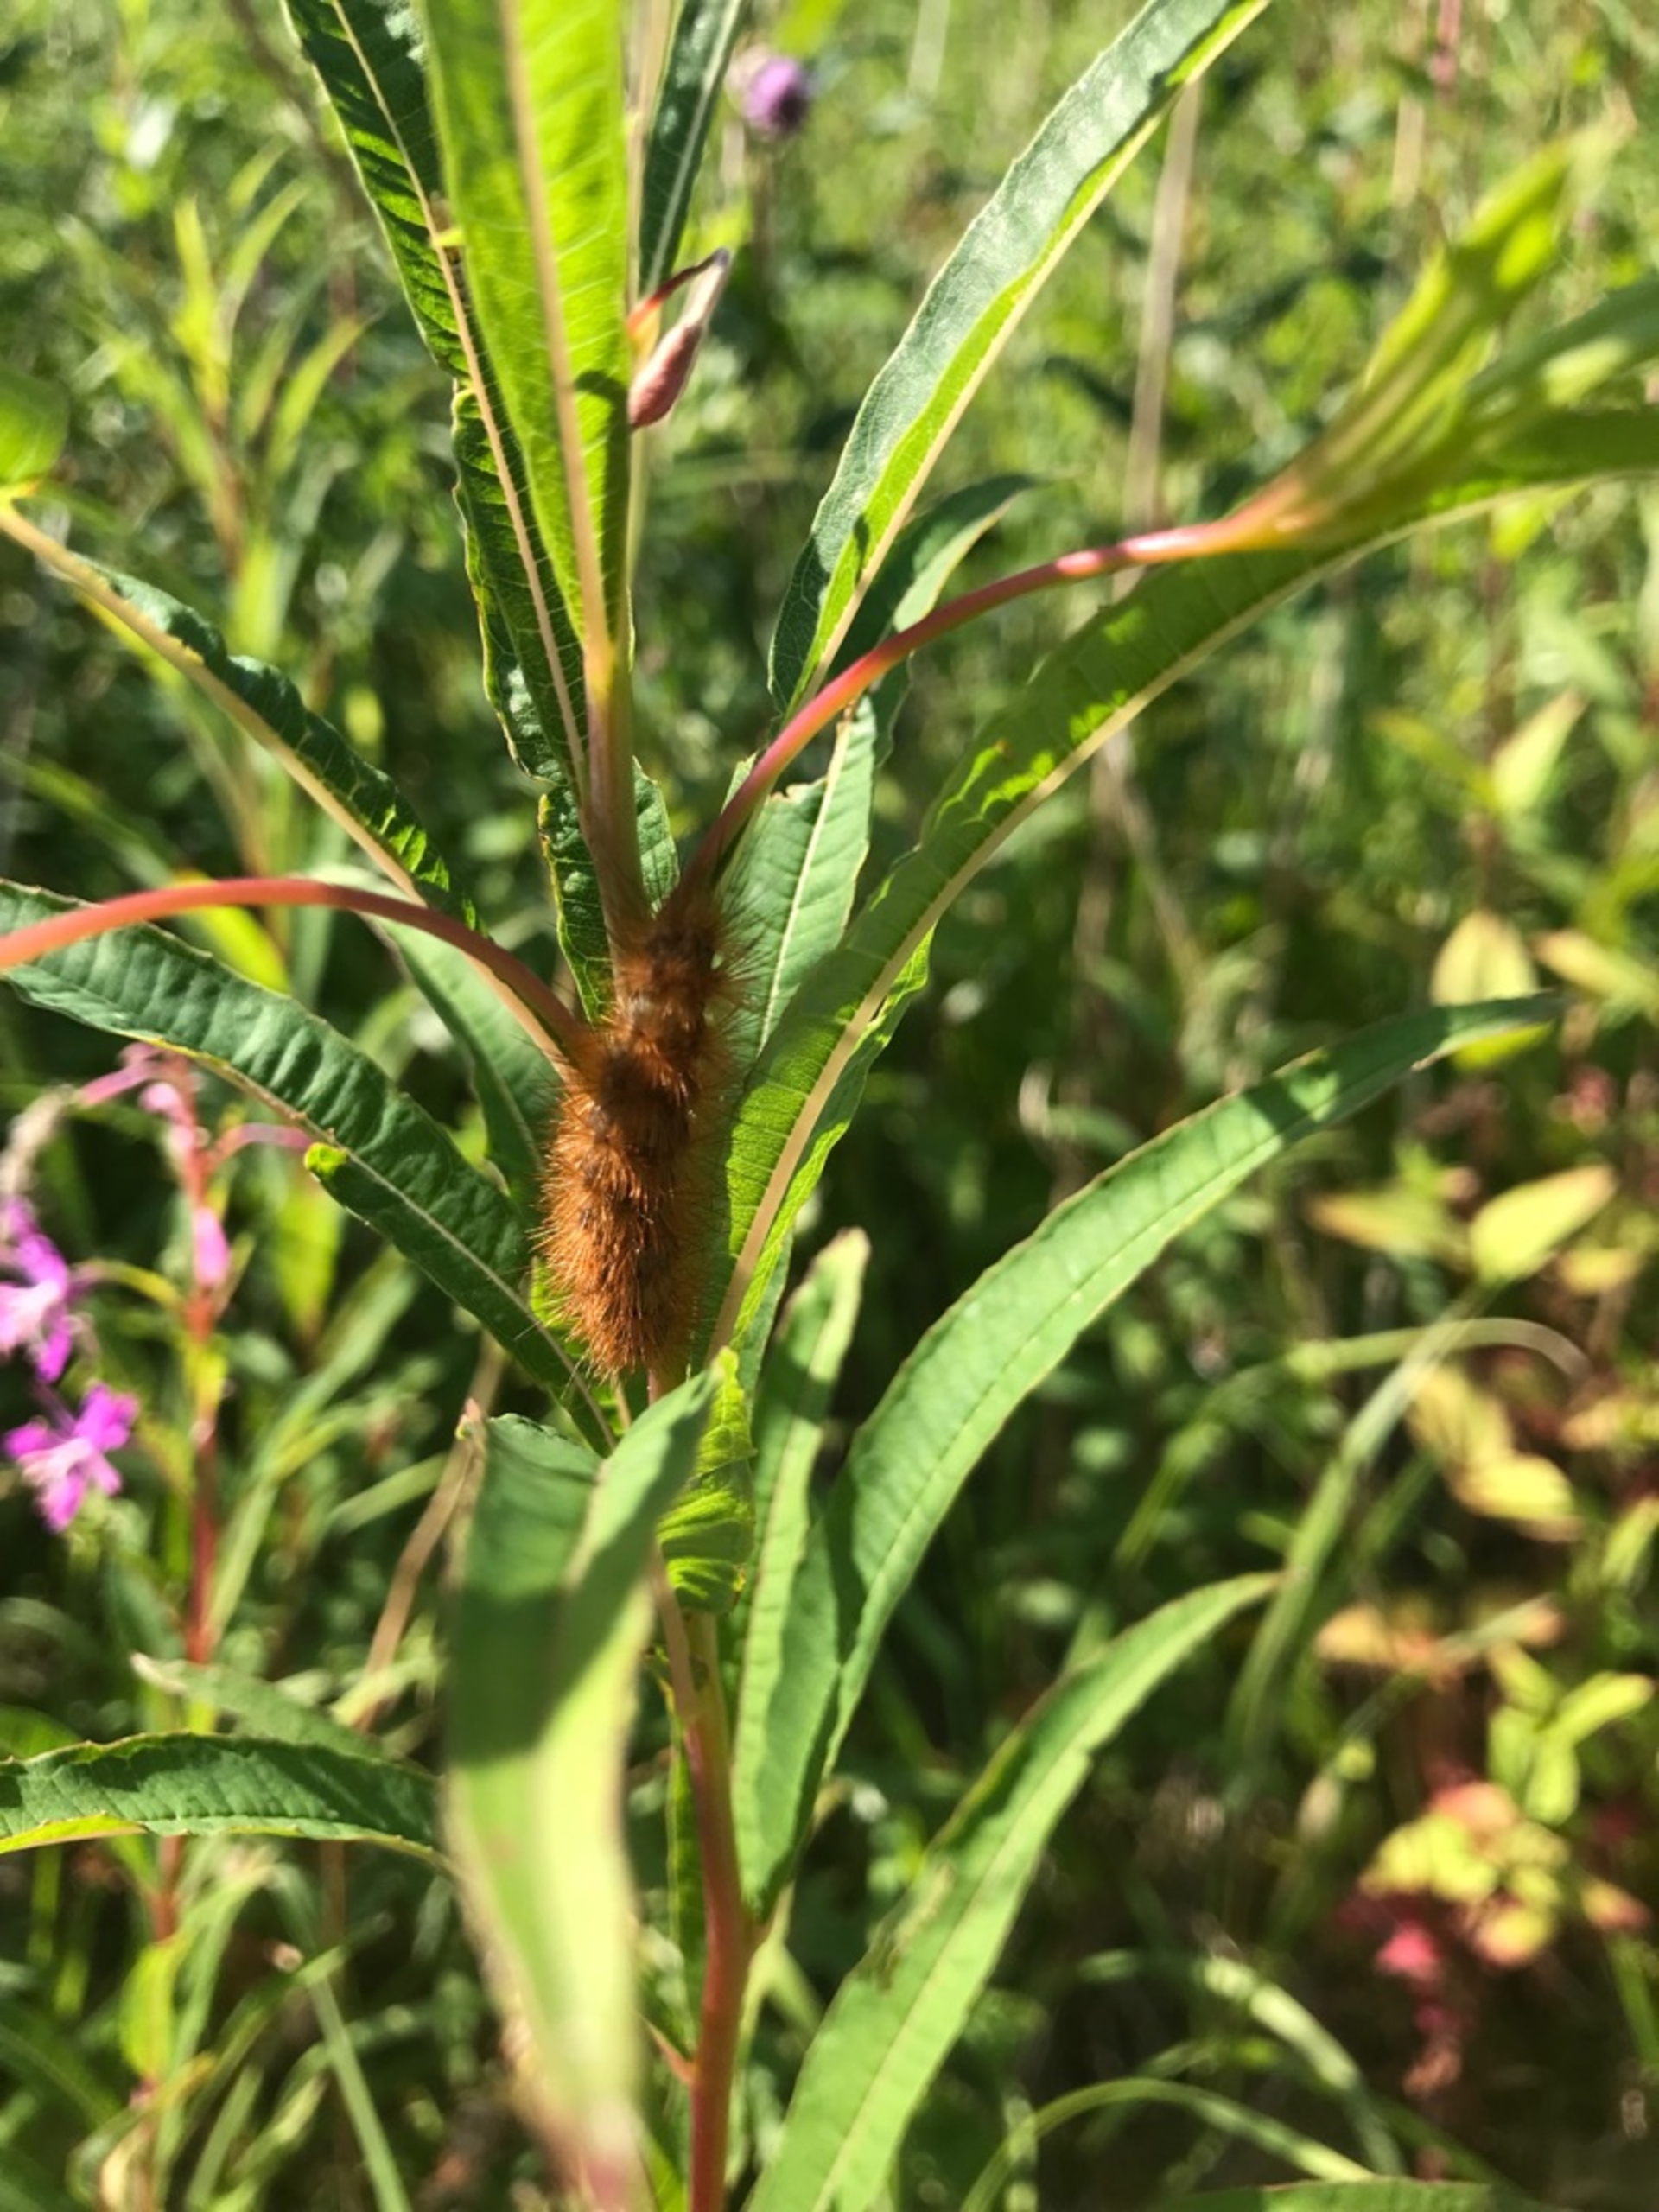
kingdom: Animalia
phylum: Arthropoda
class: Insecta
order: Lepidoptera
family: Erebidae
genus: Phragmatobia
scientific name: Phragmatobia fuliginosa
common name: Kanelbjørn
